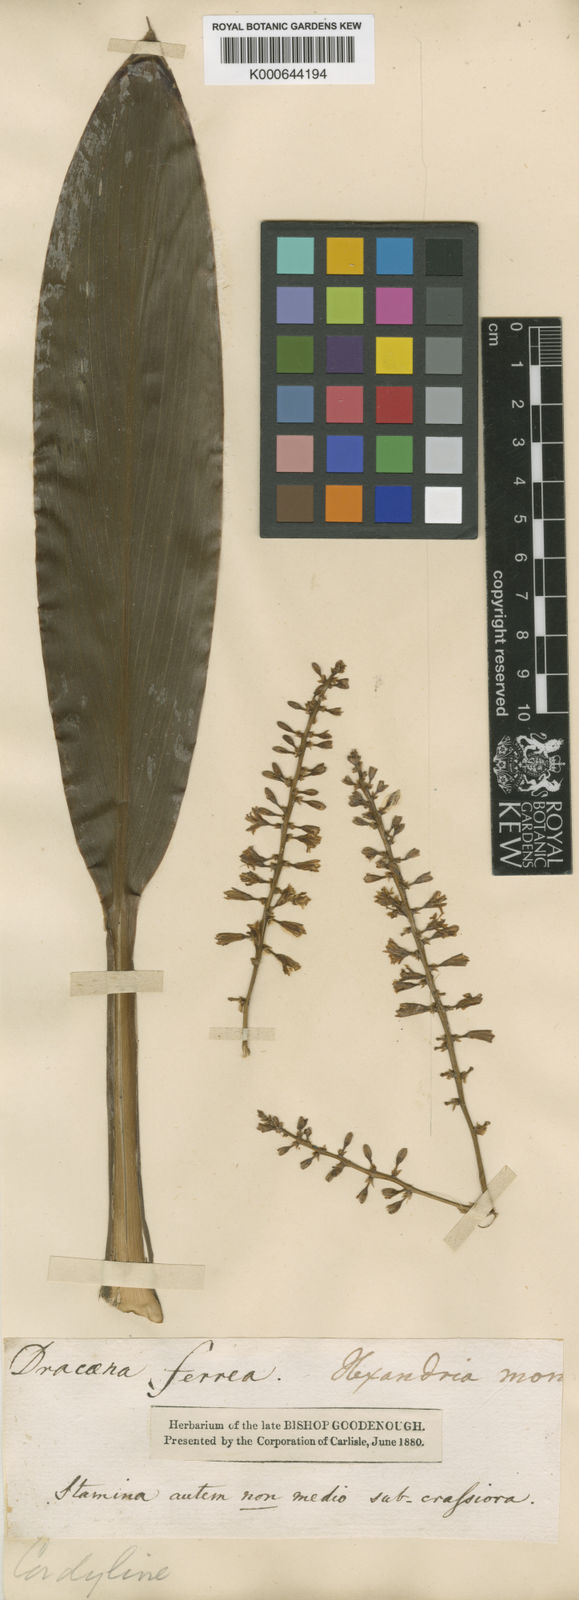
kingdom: Plantae
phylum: Tracheophyta
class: Liliopsida
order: Asparagales
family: Asparagaceae
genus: Cordyline
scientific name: Cordyline fruticosa
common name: Good-luck-plant
